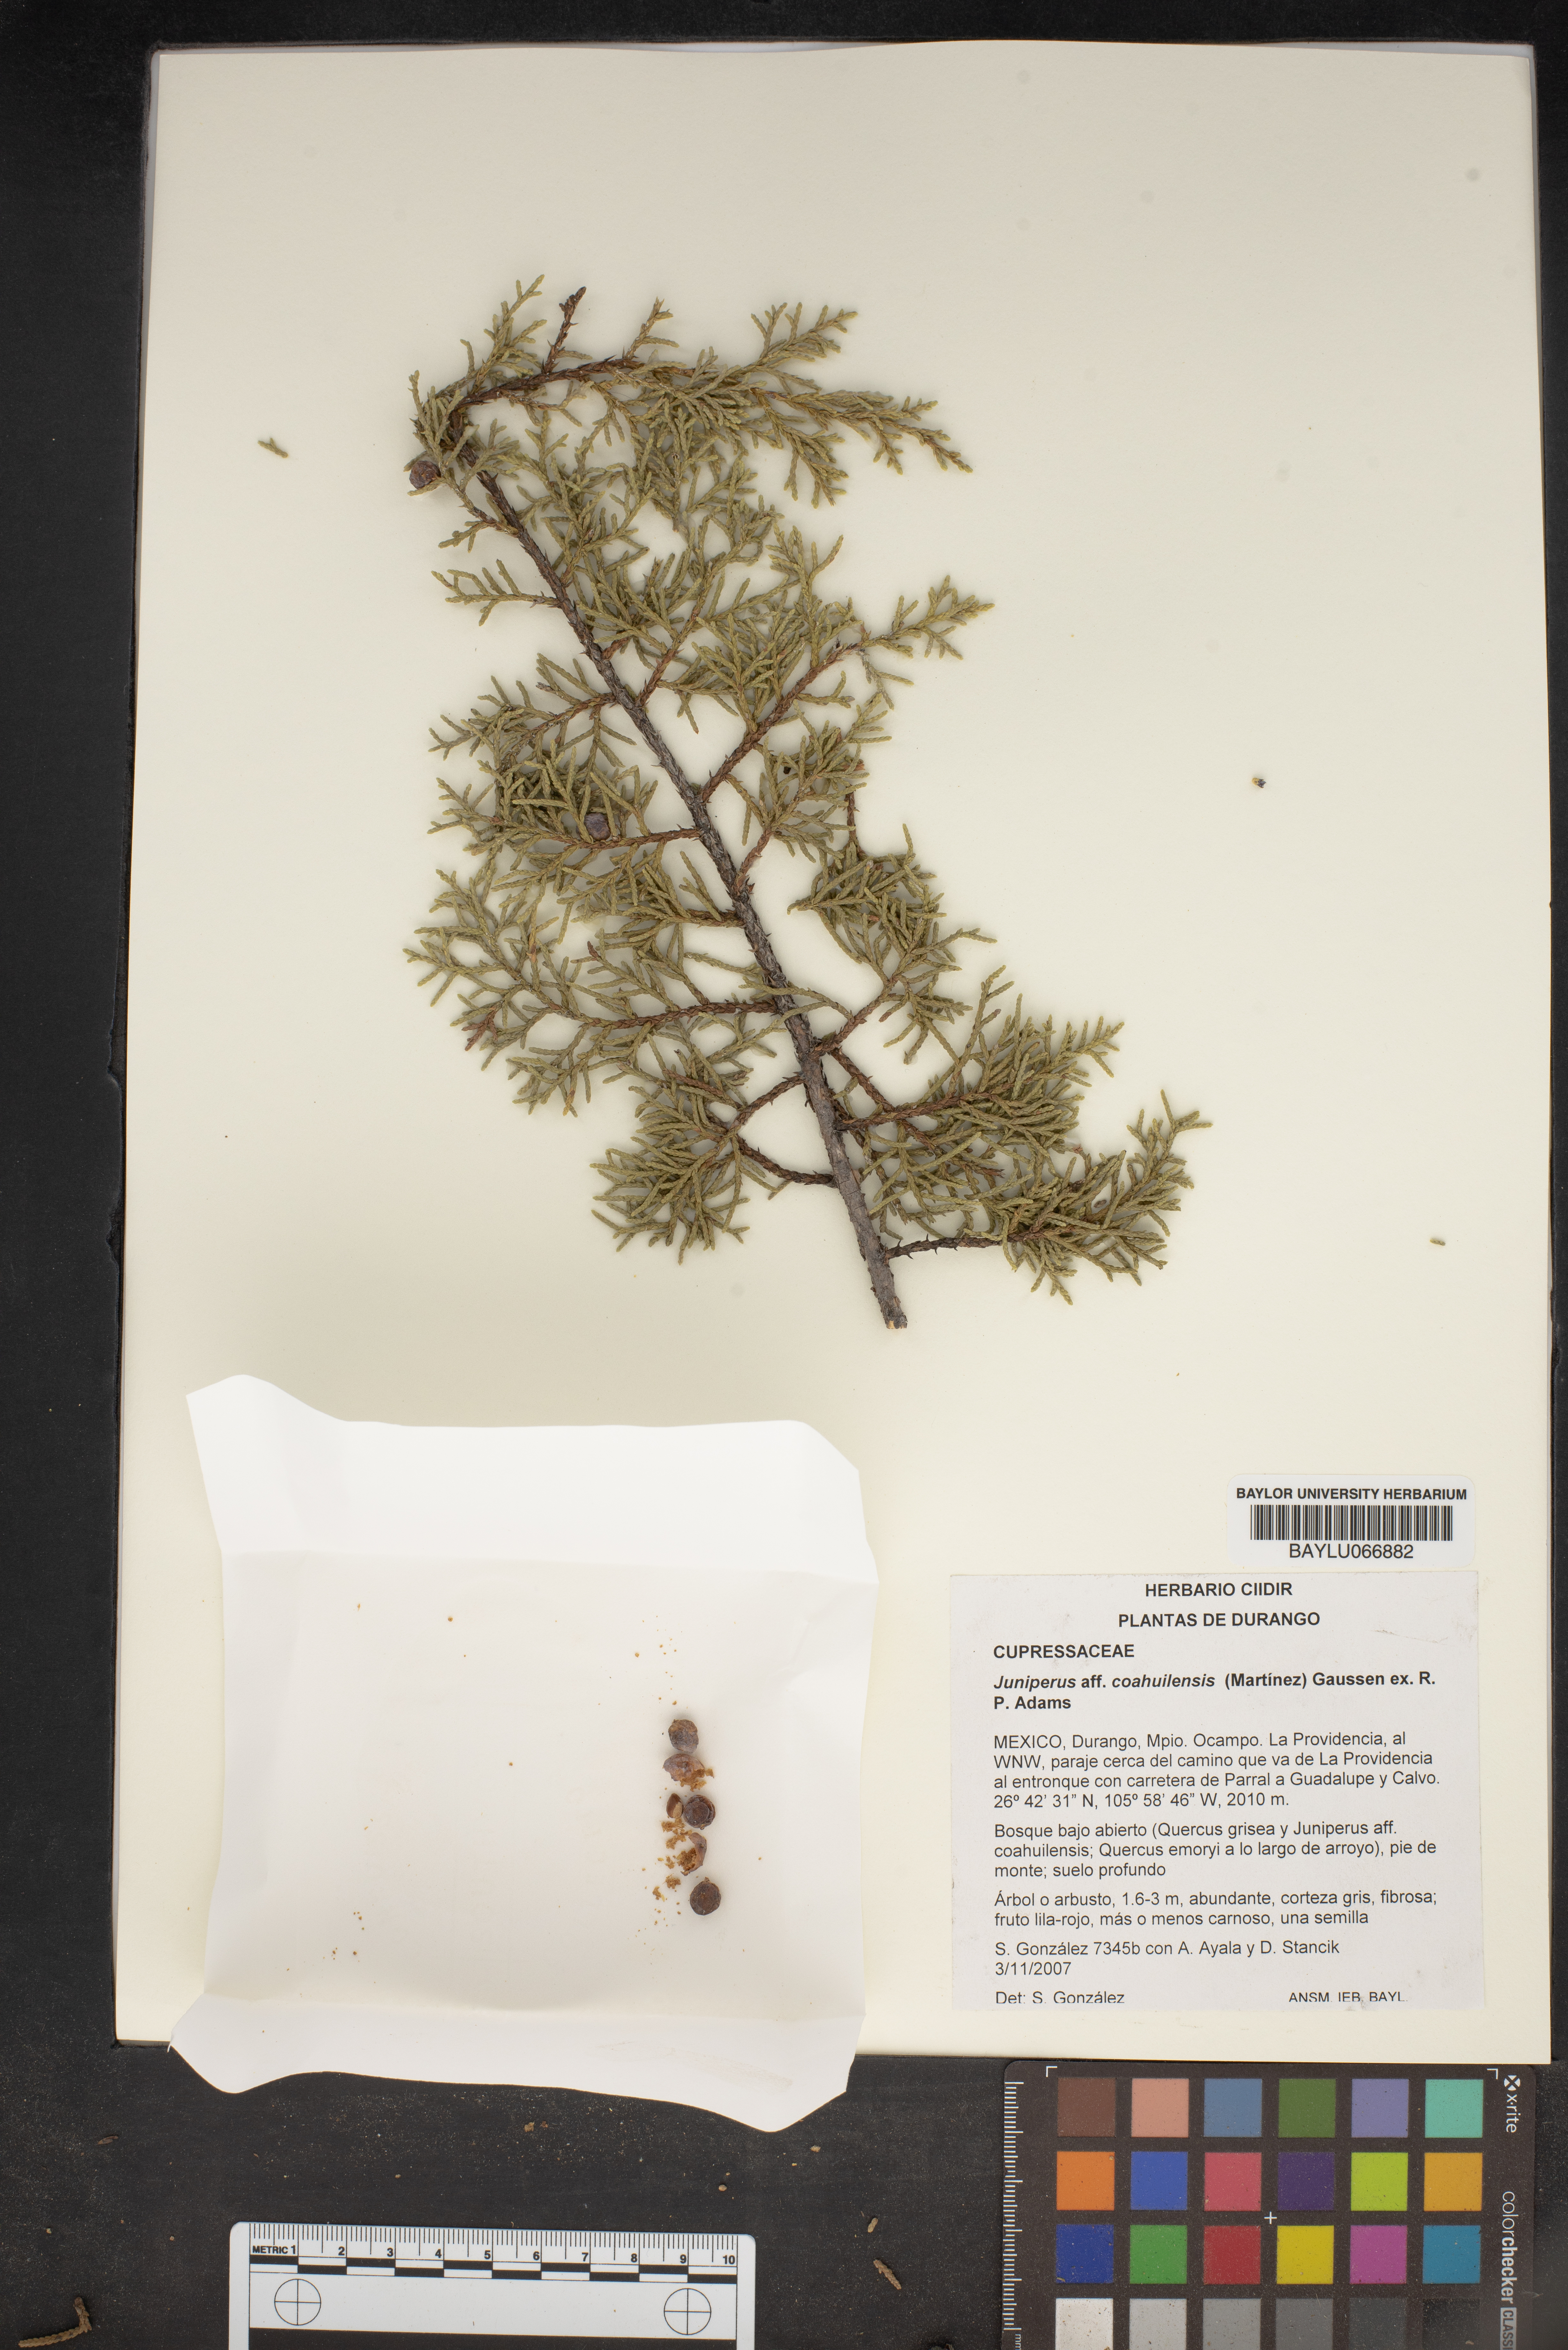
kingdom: Plantae
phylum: Tracheophyta
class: Pinopsida
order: Pinales
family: Cupressaceae
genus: Juniperus
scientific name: Juniperus coahuilensis
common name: Roseberry
